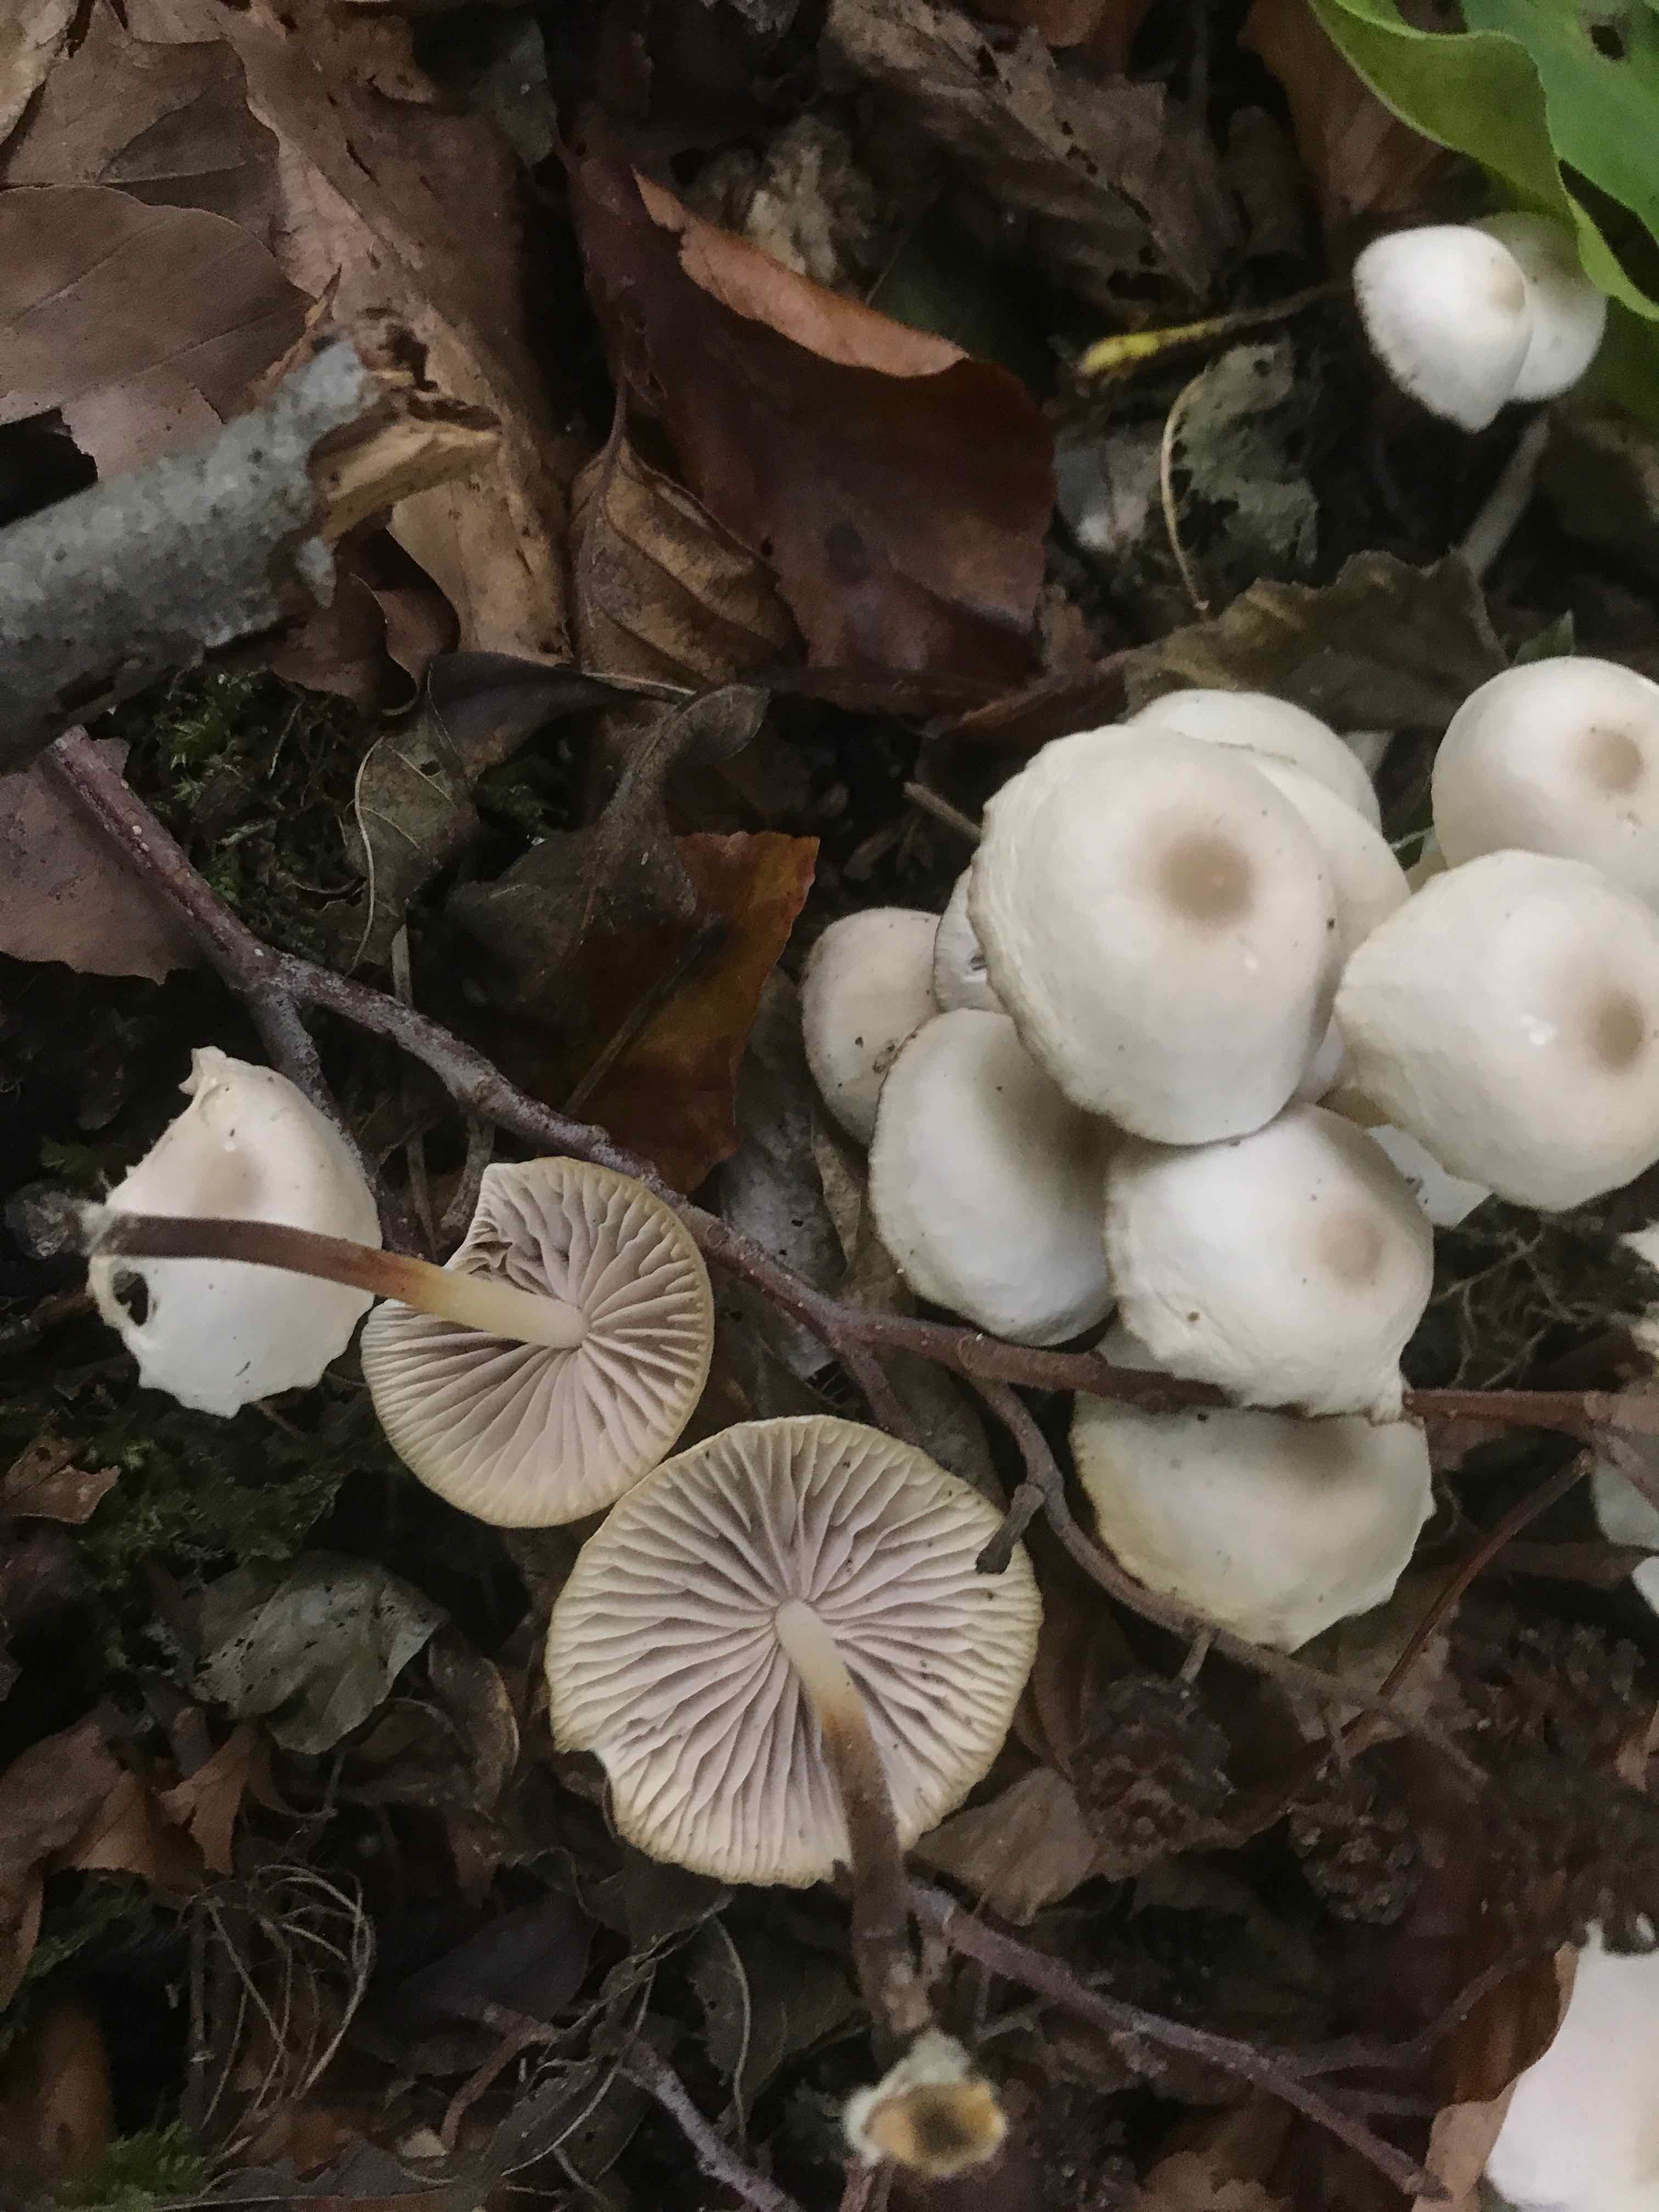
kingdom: Fungi
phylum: Basidiomycota
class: Agaricomycetes
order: Agaricales
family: Marasmiaceae
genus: Marasmius
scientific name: Marasmius wynneae
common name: hvælvet bruskhat
